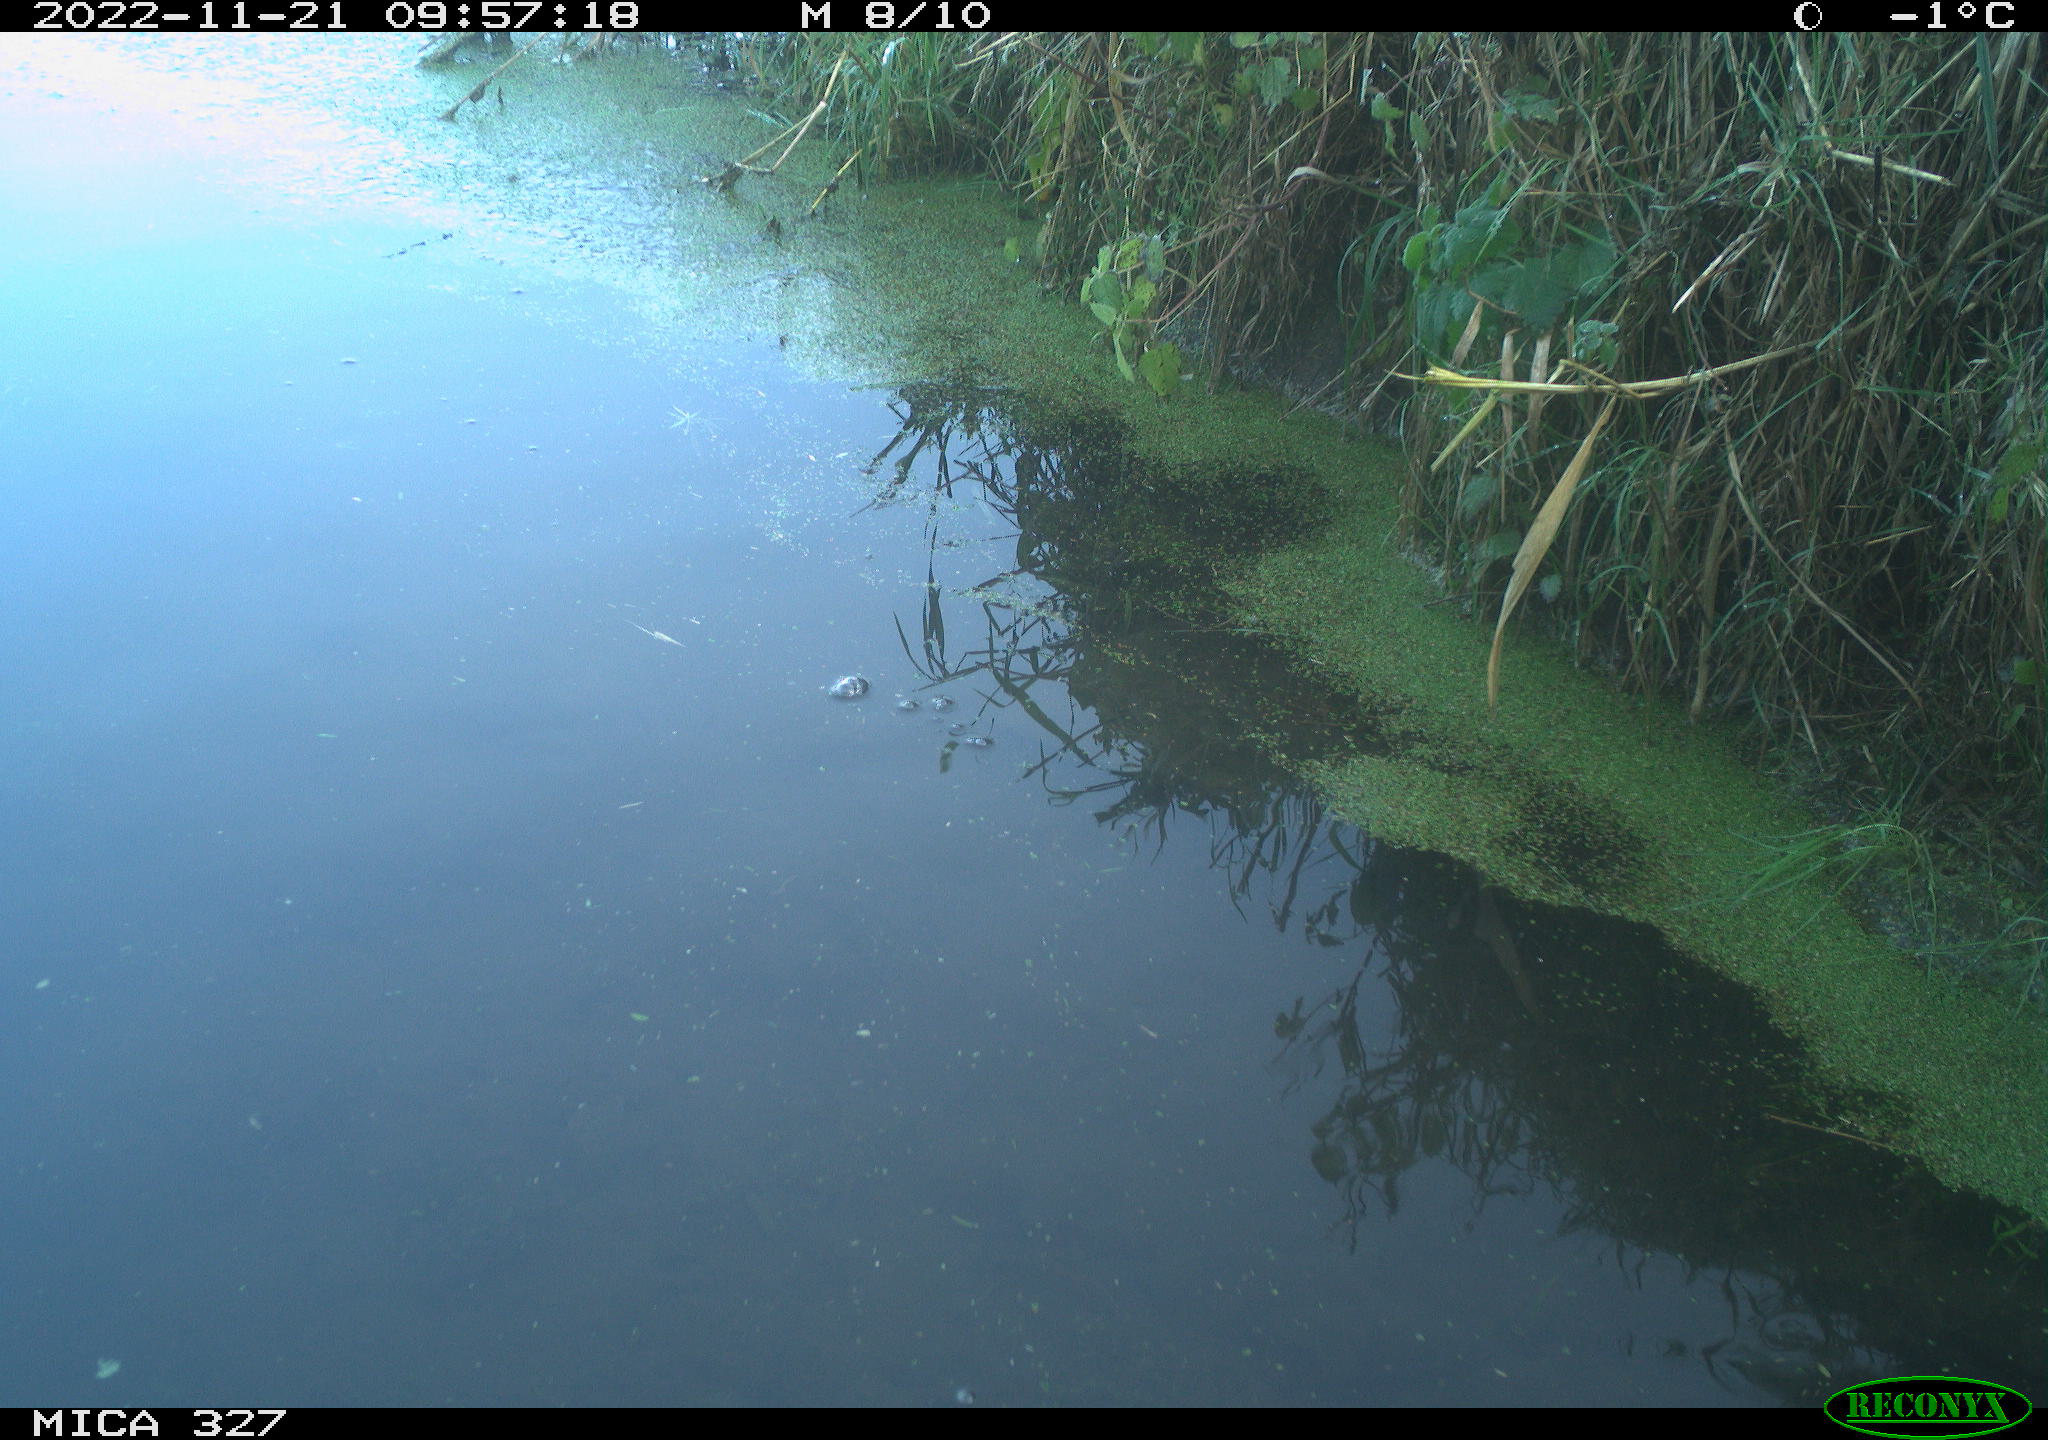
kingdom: Animalia
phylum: Chordata
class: Aves
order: Gruiformes
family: Rallidae
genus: Gallinula
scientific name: Gallinula chloropus
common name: Common moorhen
